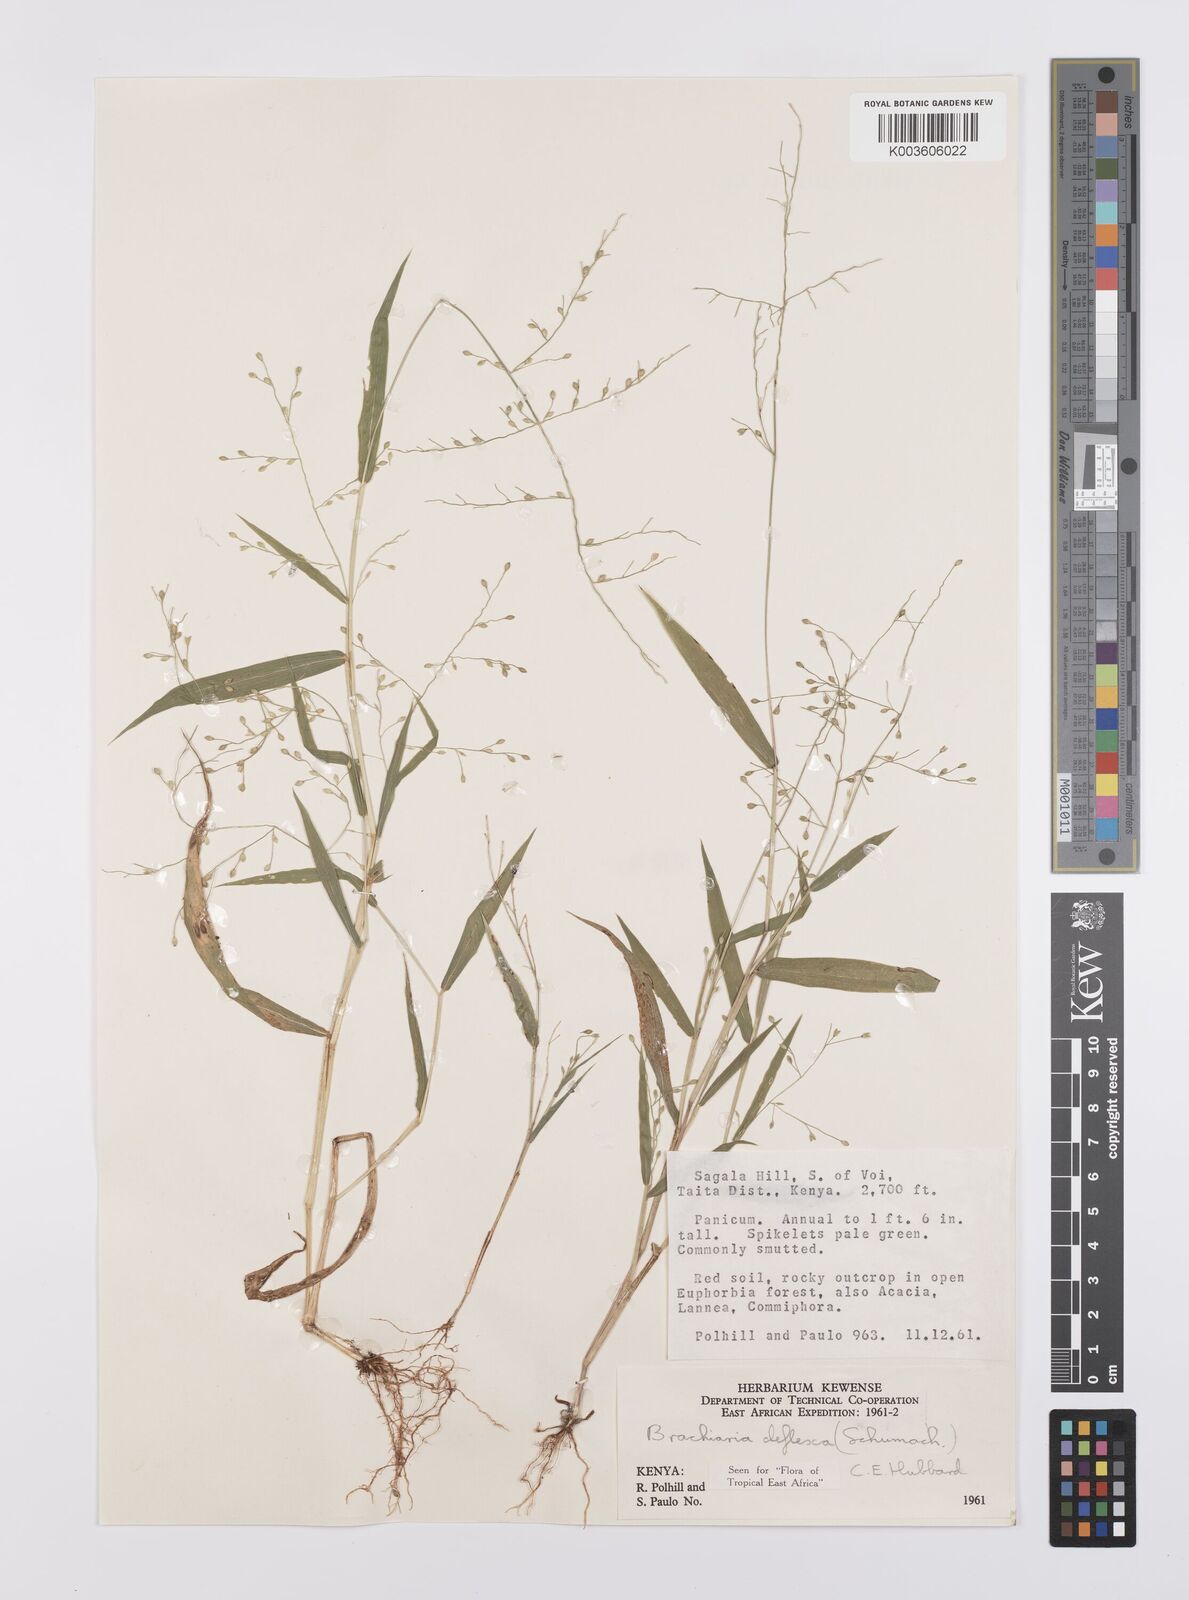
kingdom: Plantae
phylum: Tracheophyta
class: Liliopsida
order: Poales
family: Poaceae
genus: Urochloa
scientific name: Urochloa deflexa
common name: Guinea millet
